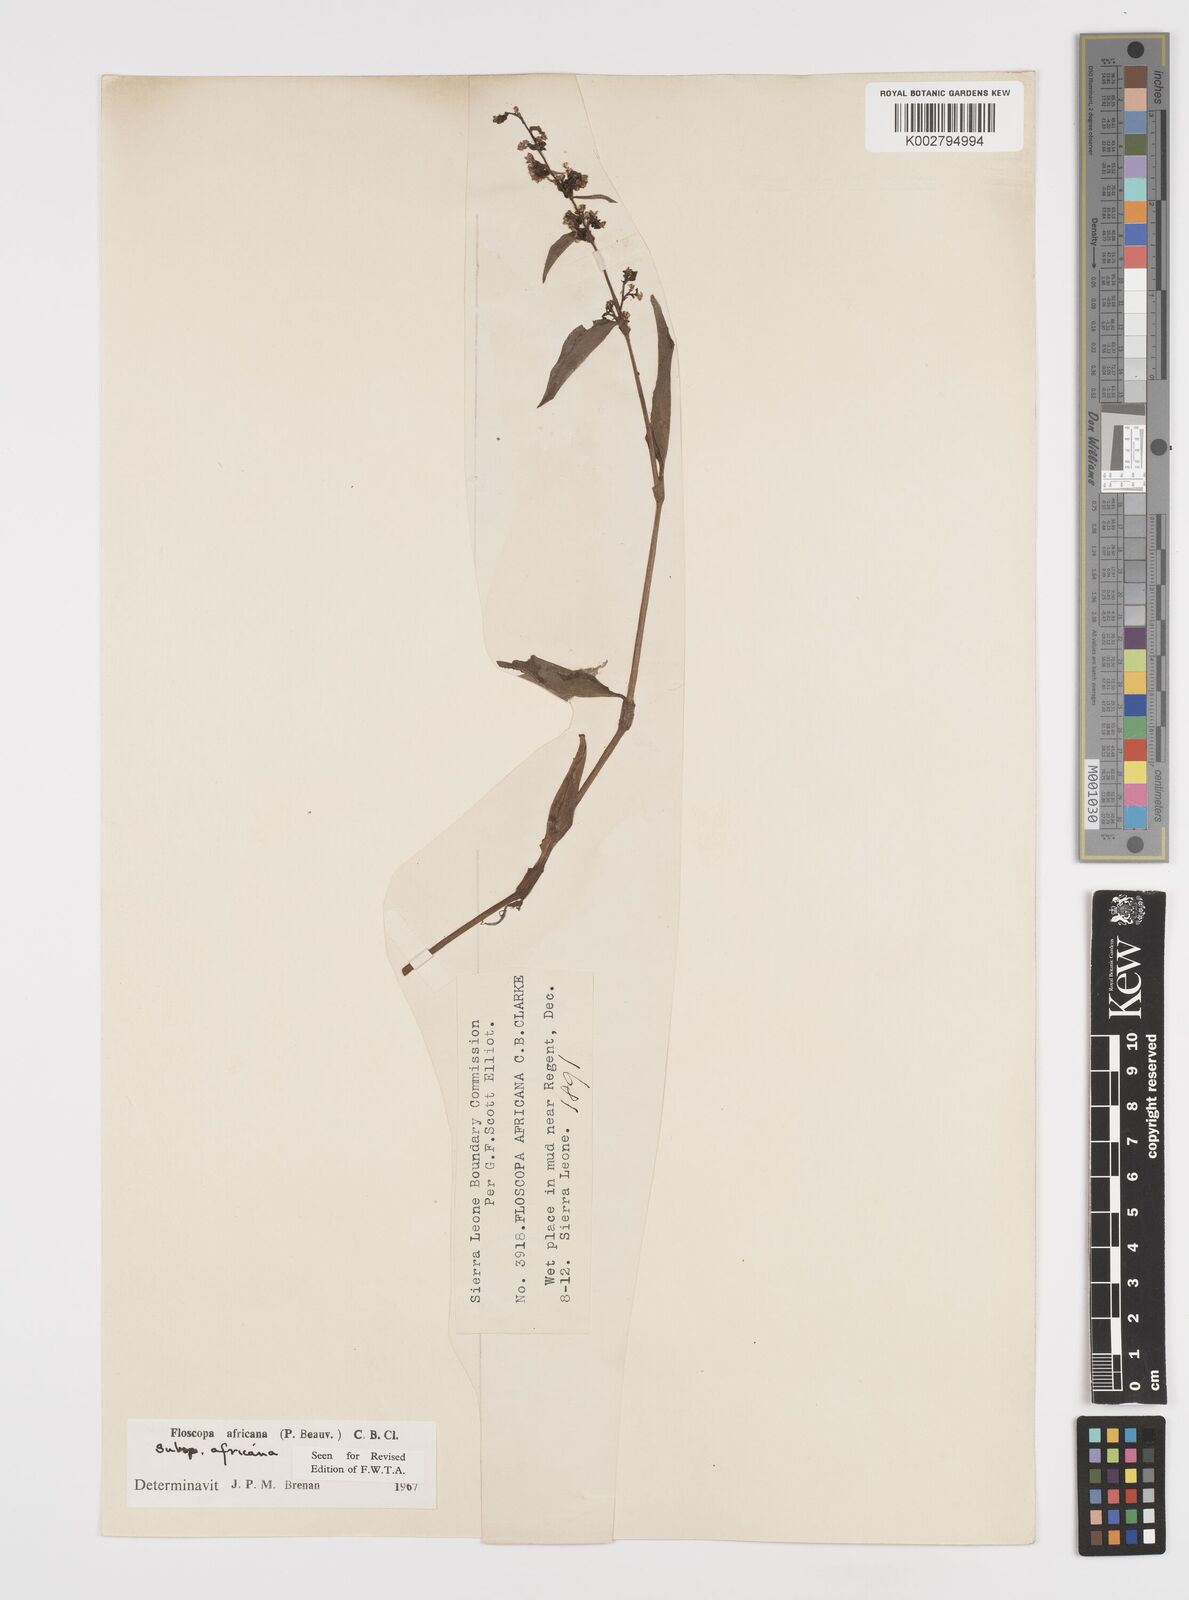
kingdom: Plantae
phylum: Tracheophyta
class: Liliopsida
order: Commelinales
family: Commelinaceae
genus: Floscopa
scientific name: Floscopa africana
